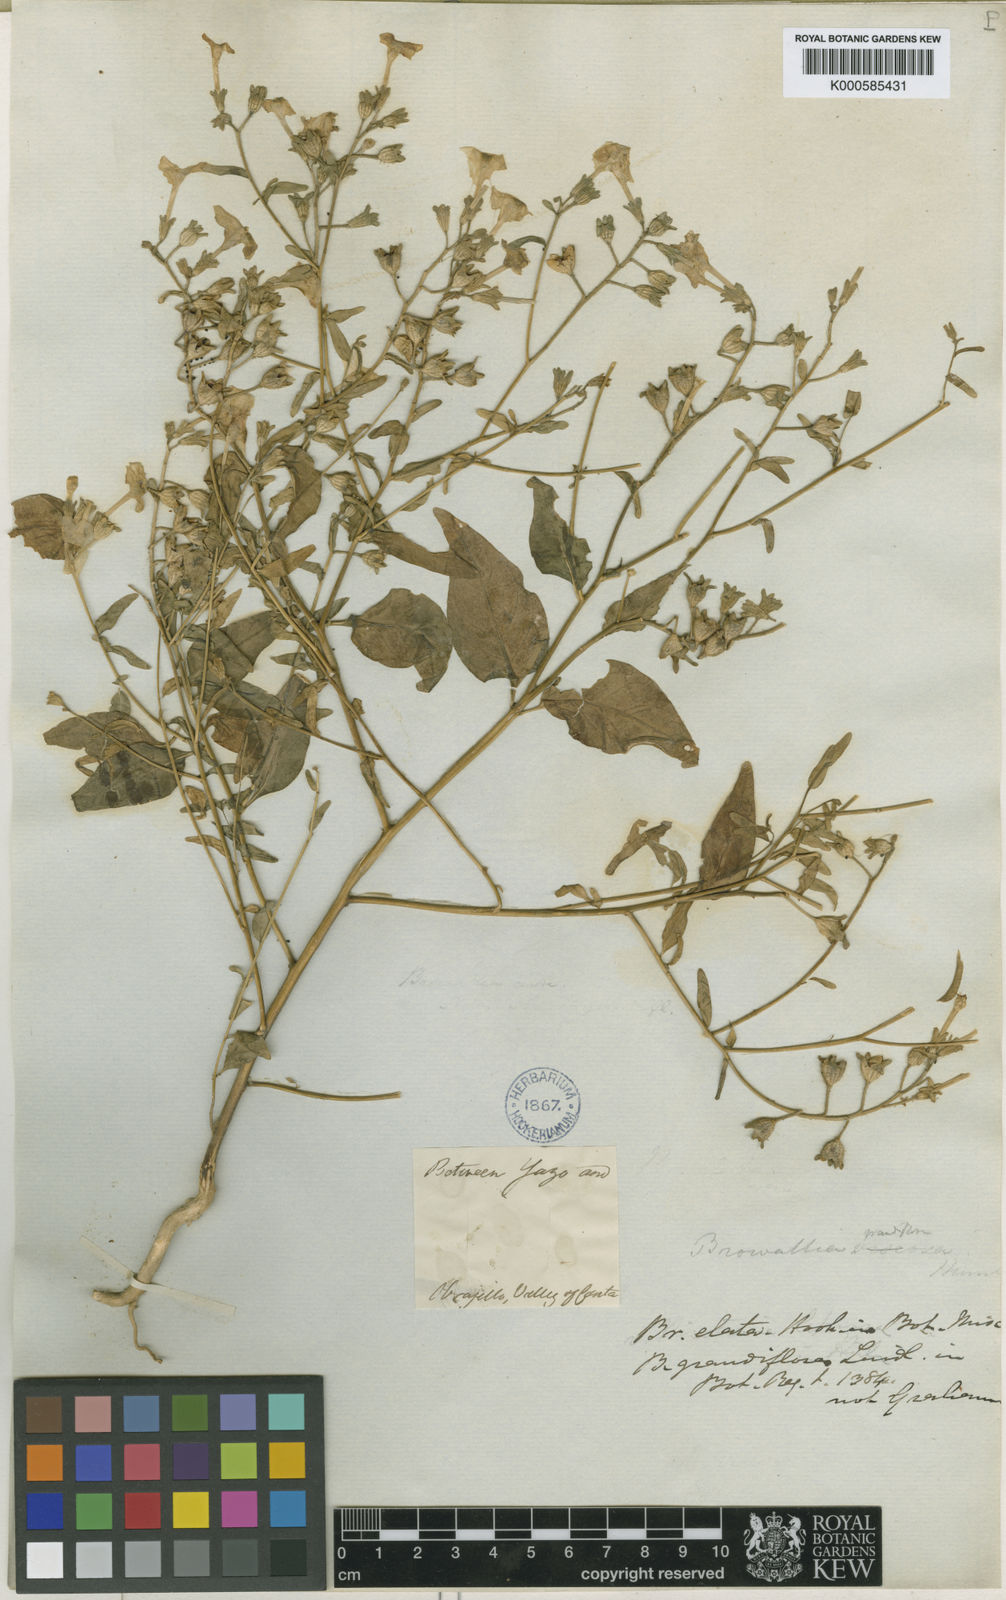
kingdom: Plantae
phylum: Tracheophyta
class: Magnoliopsida
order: Solanales
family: Solanaceae
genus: Brunfelsia
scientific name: Brunfelsia grandiflora
